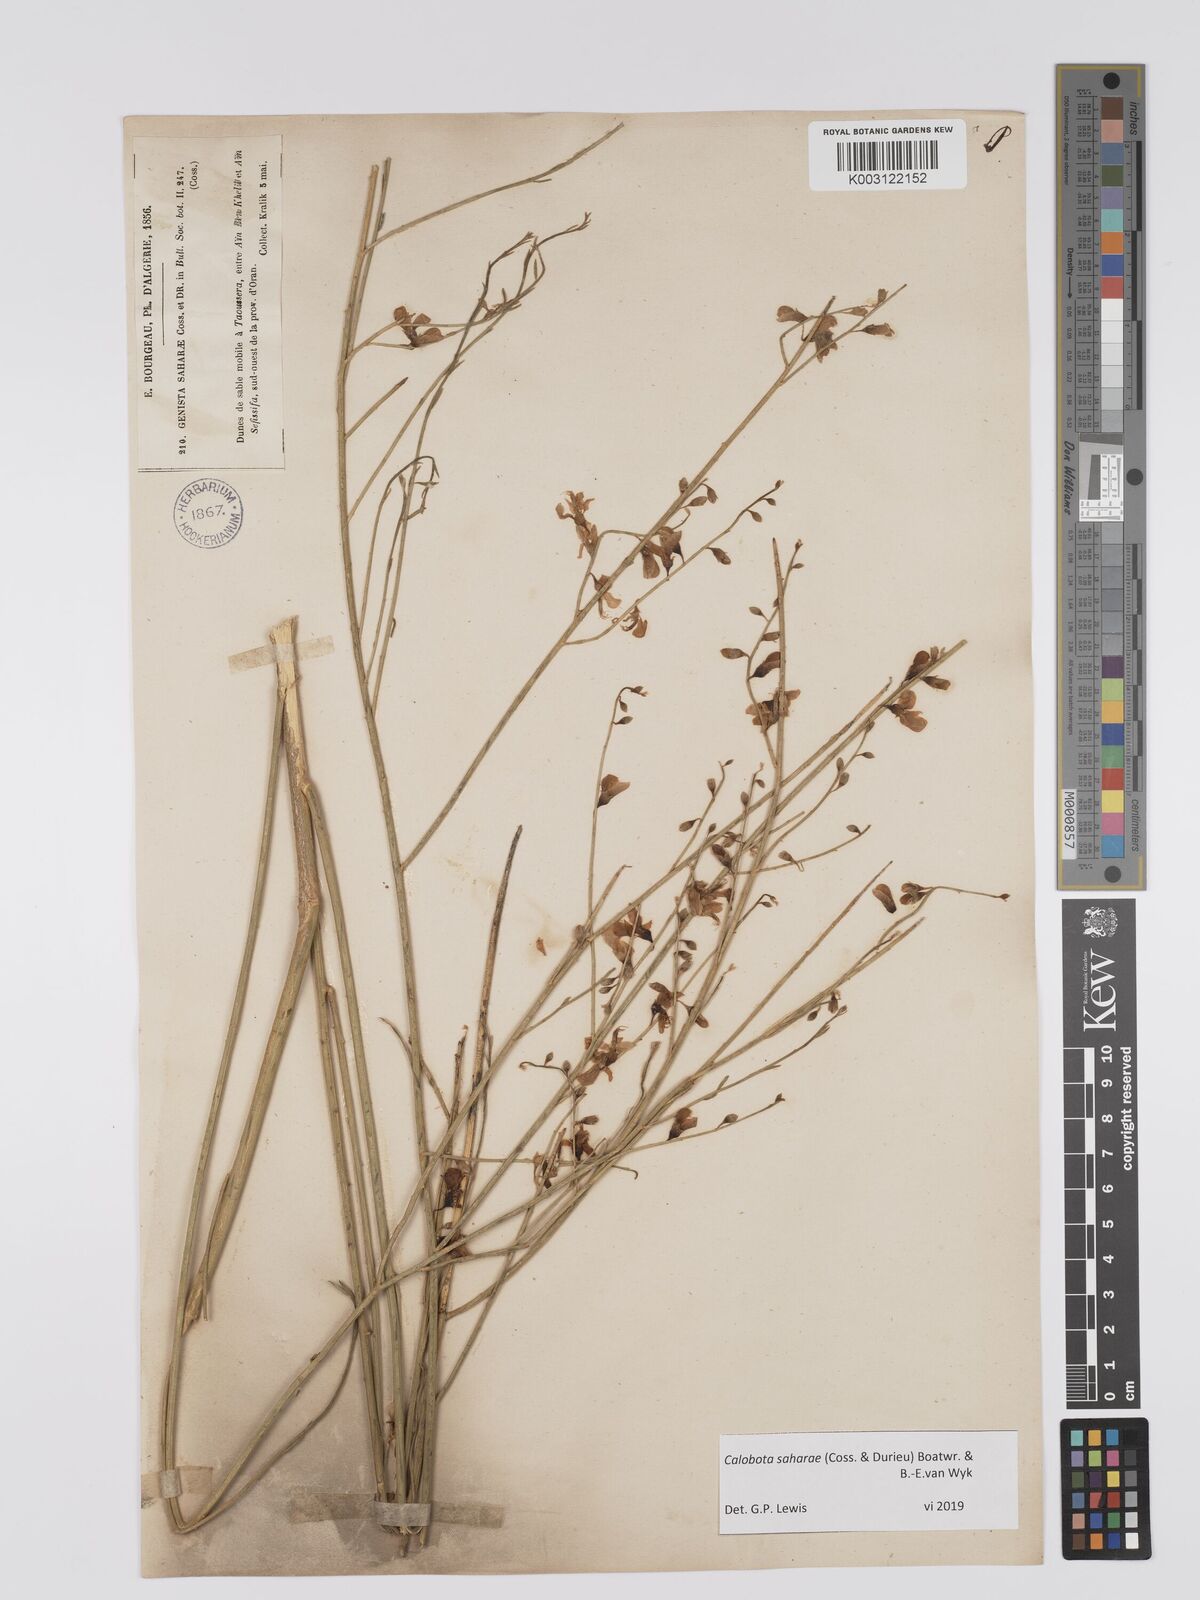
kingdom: Plantae
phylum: Tracheophyta
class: Magnoliopsida
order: Fabales
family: Fabaceae
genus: Calobota
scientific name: Calobota saharae
